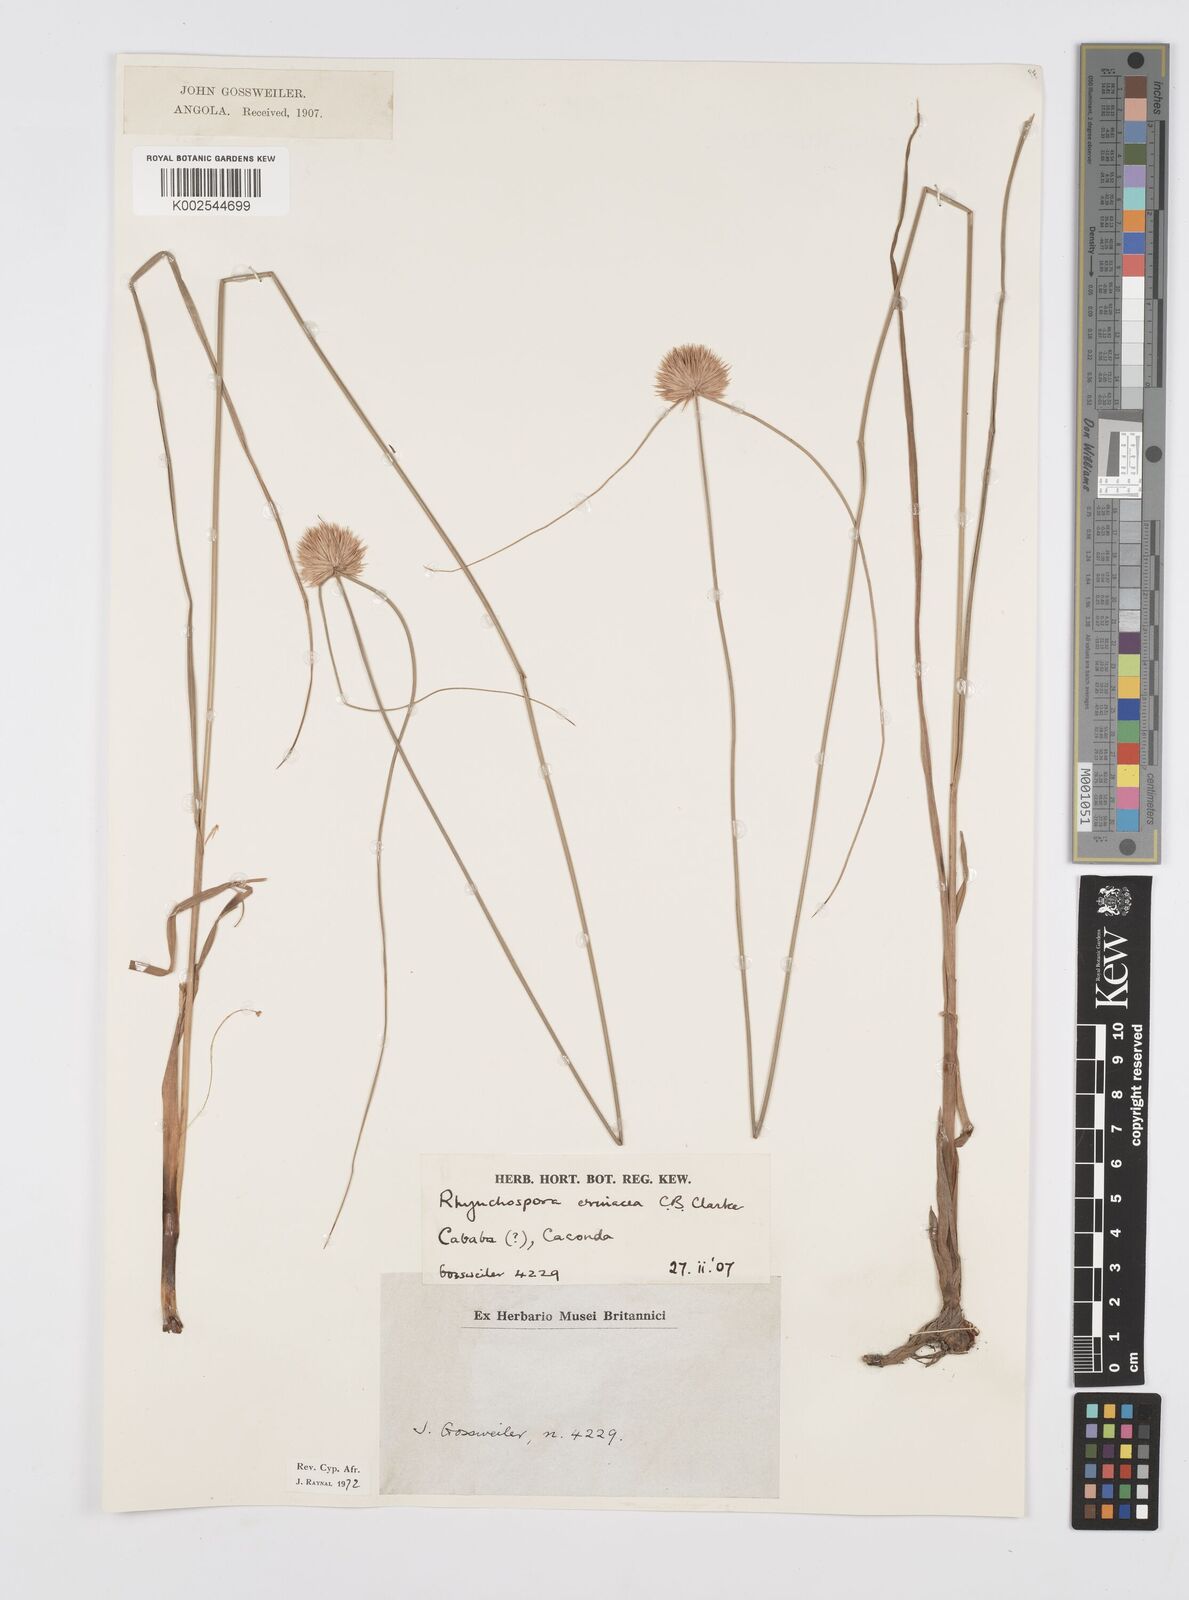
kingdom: Plantae
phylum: Tracheophyta
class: Liliopsida
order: Poales
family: Cyperaceae
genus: Cyperus
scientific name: Cyperus erinaceus
